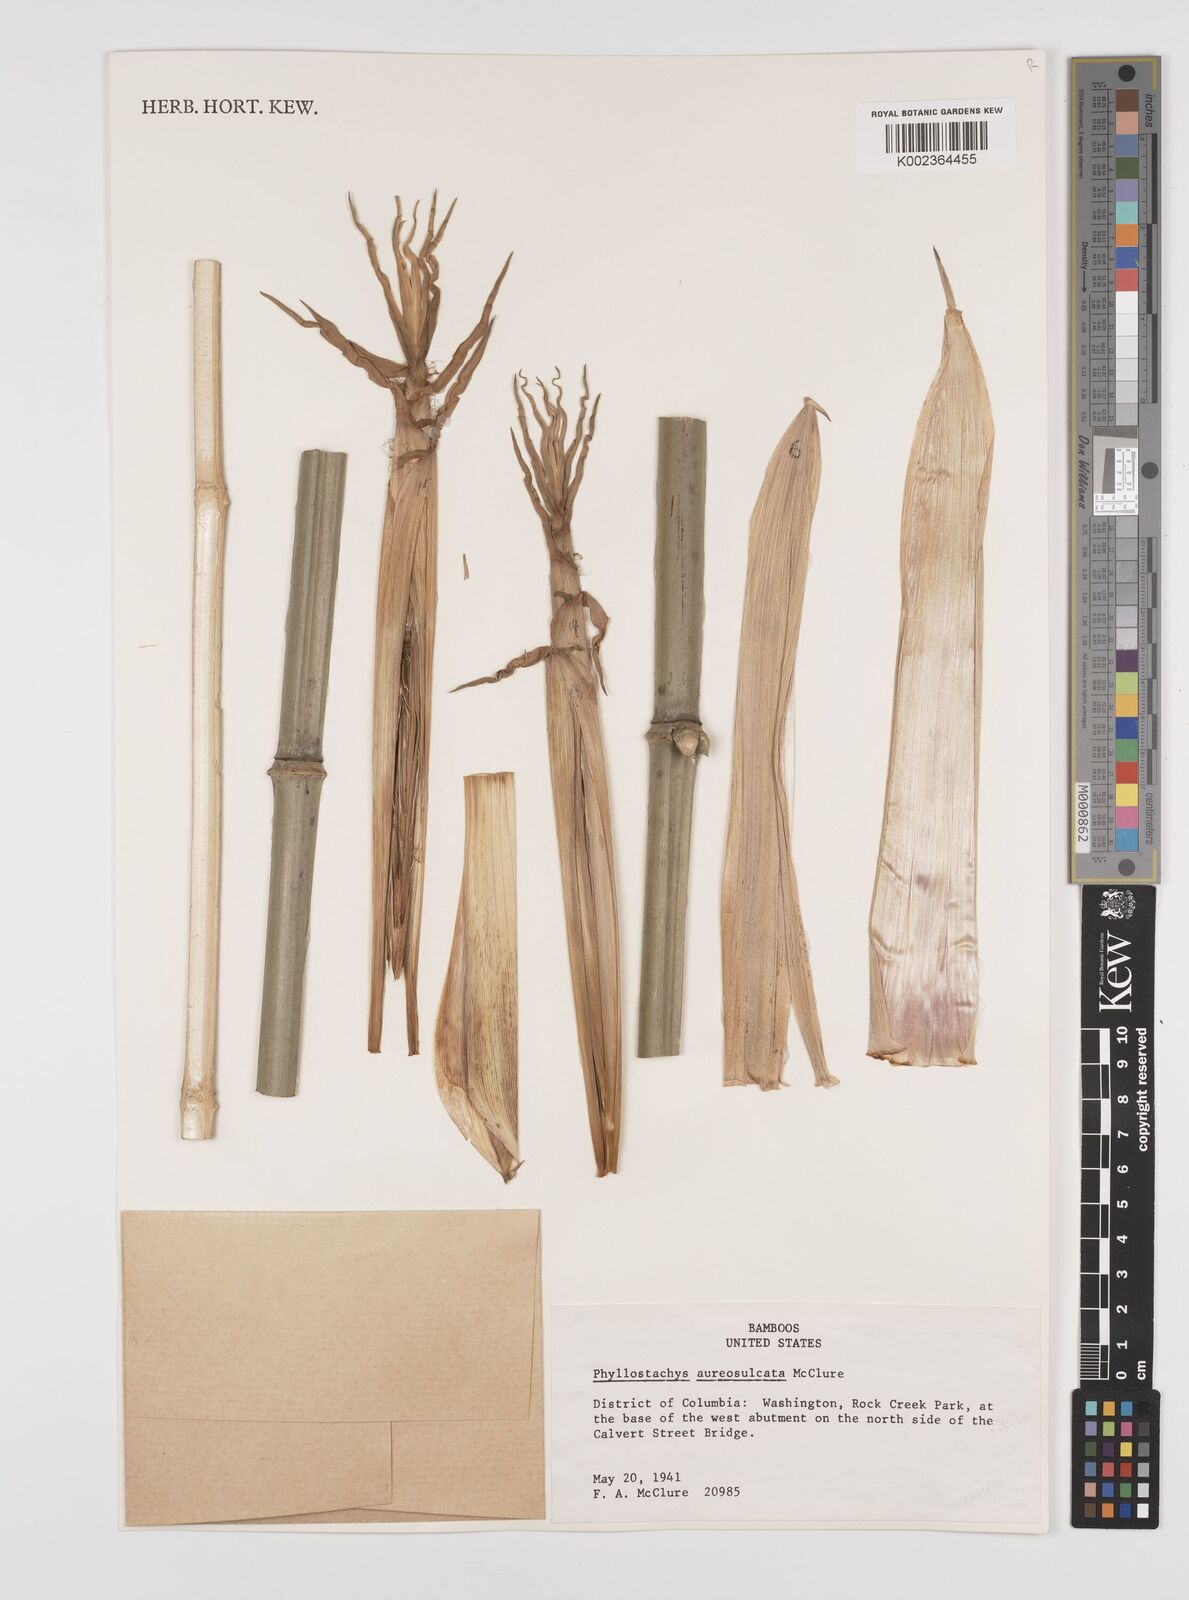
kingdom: Plantae
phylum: Tracheophyta
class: Liliopsida
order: Poales
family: Poaceae
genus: Phyllostachys
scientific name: Phyllostachys aureosulcata
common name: Yellow groove bamboo
